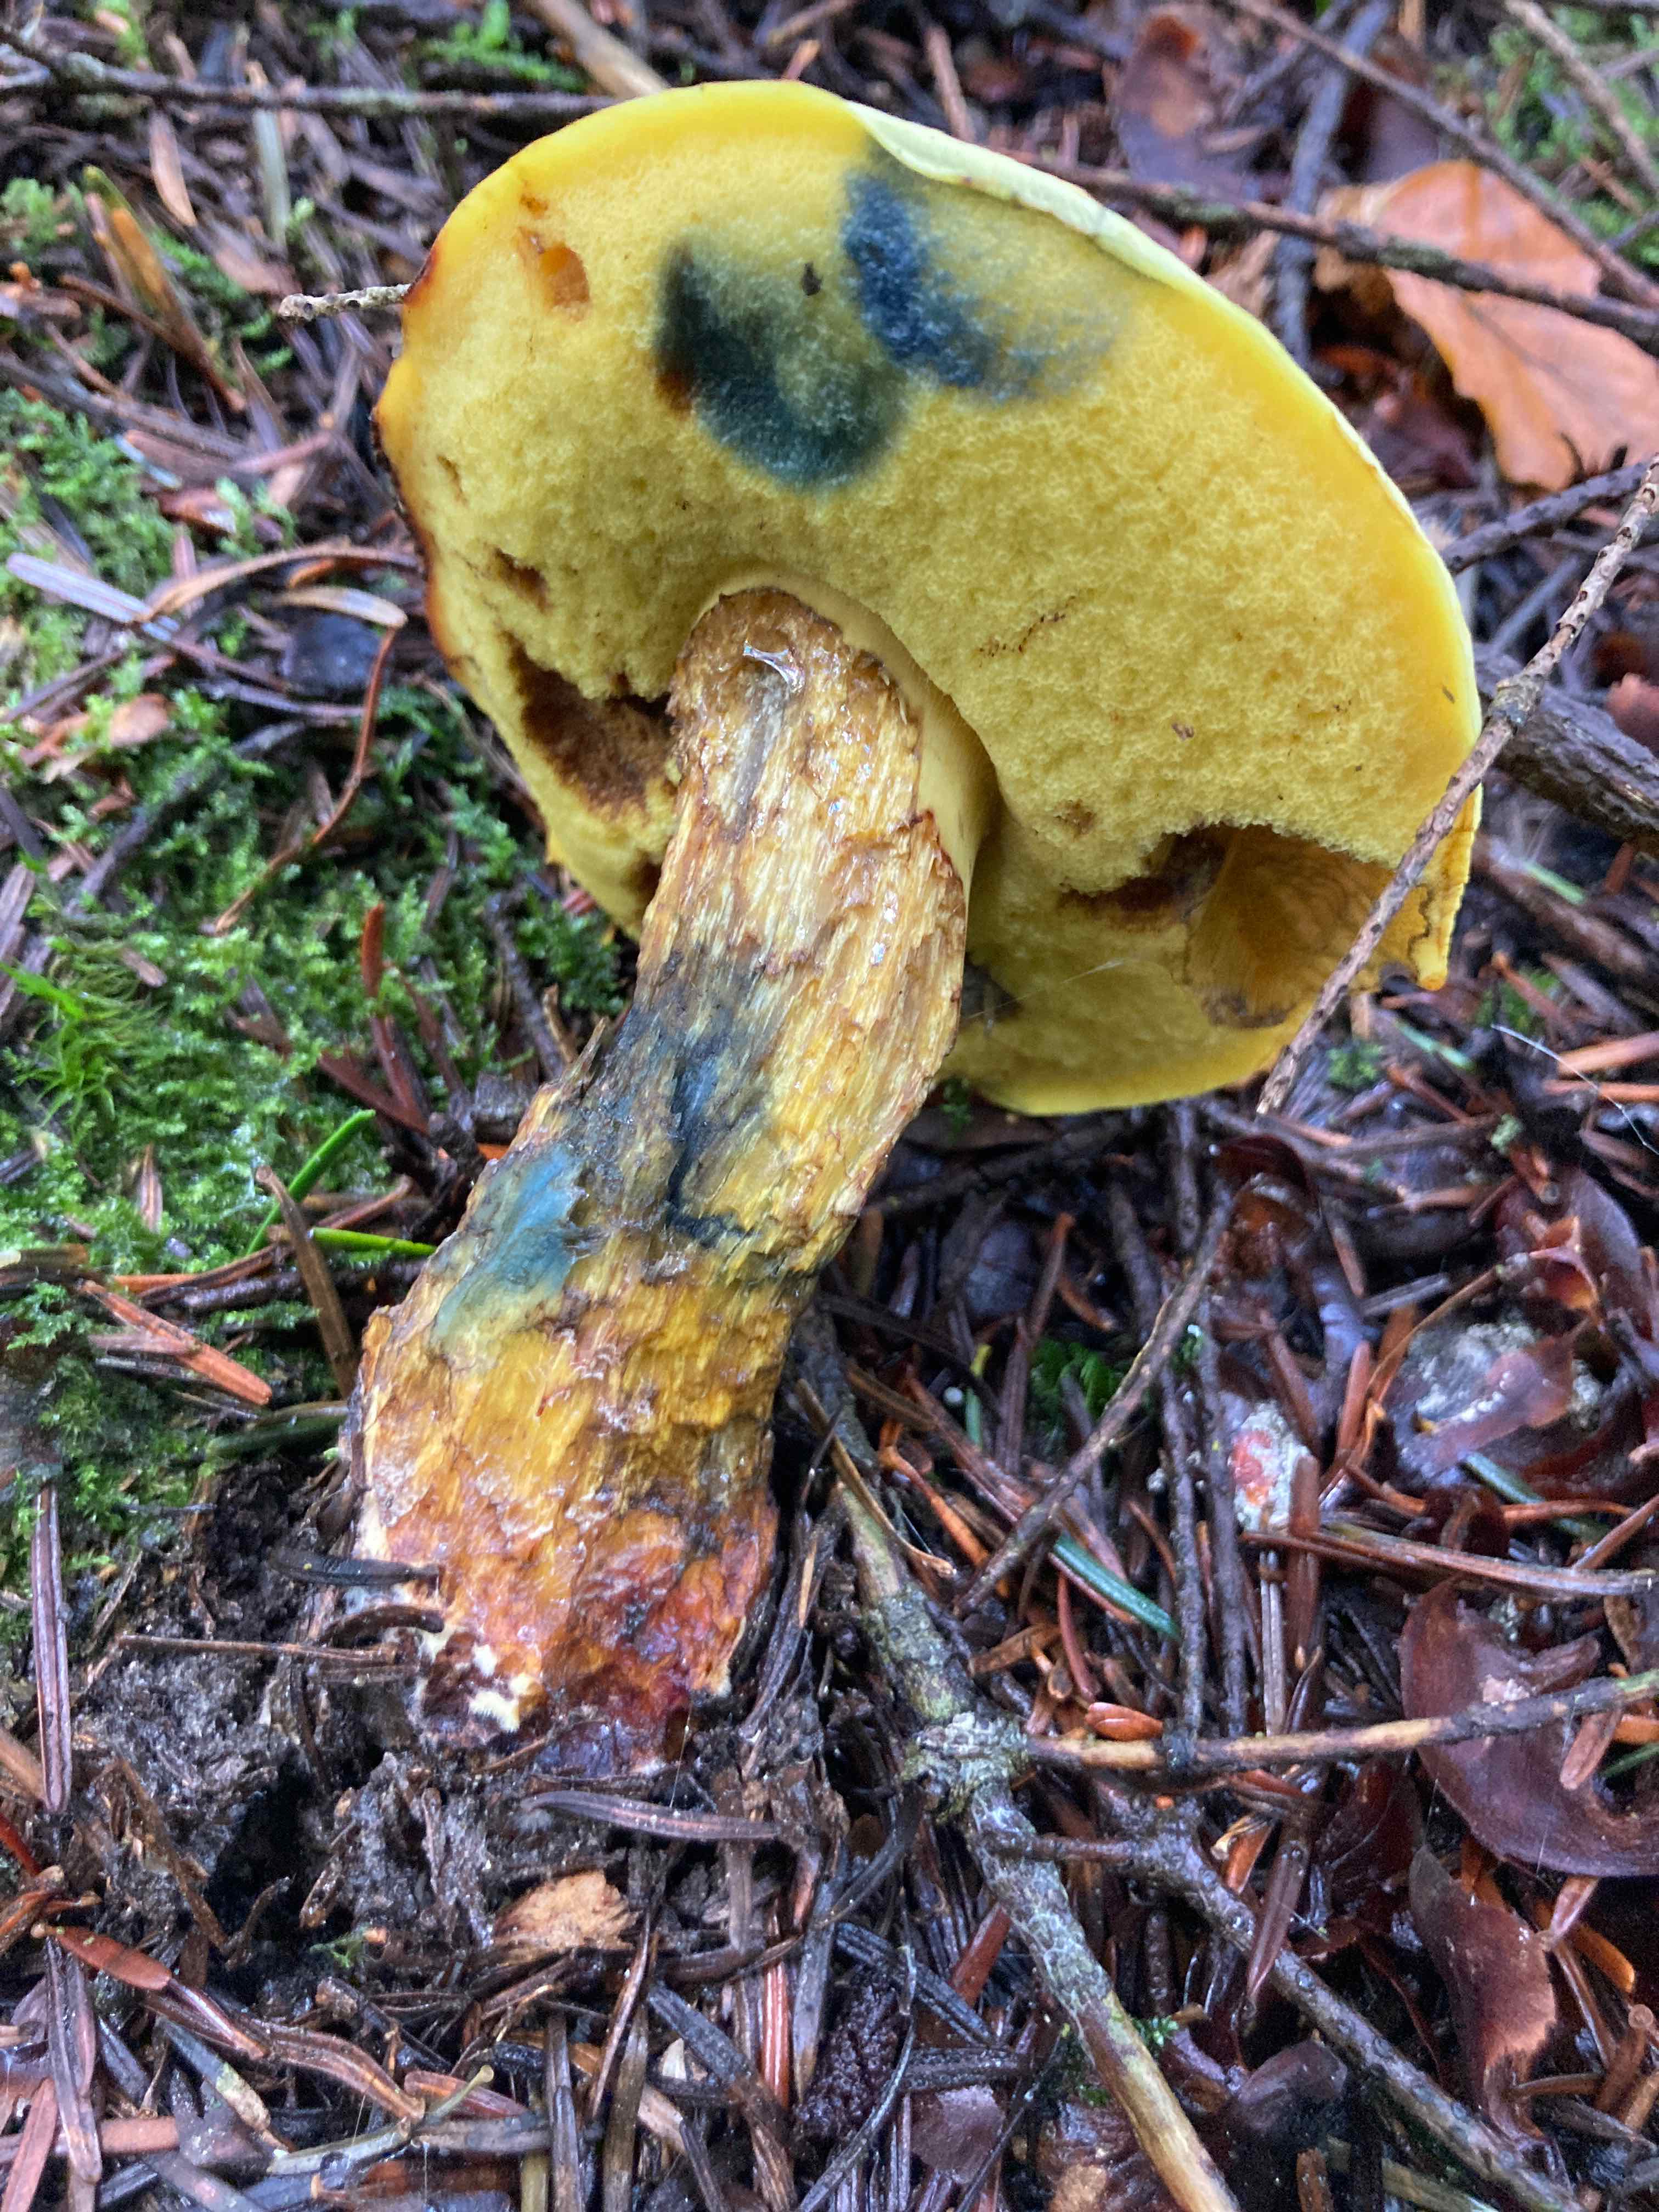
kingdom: Fungi
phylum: Basidiomycota
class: Agaricomycetes
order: Boletales
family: Boletaceae
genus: Neoboletus
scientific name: Neoboletus praestigiator
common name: gul indigorørhat
